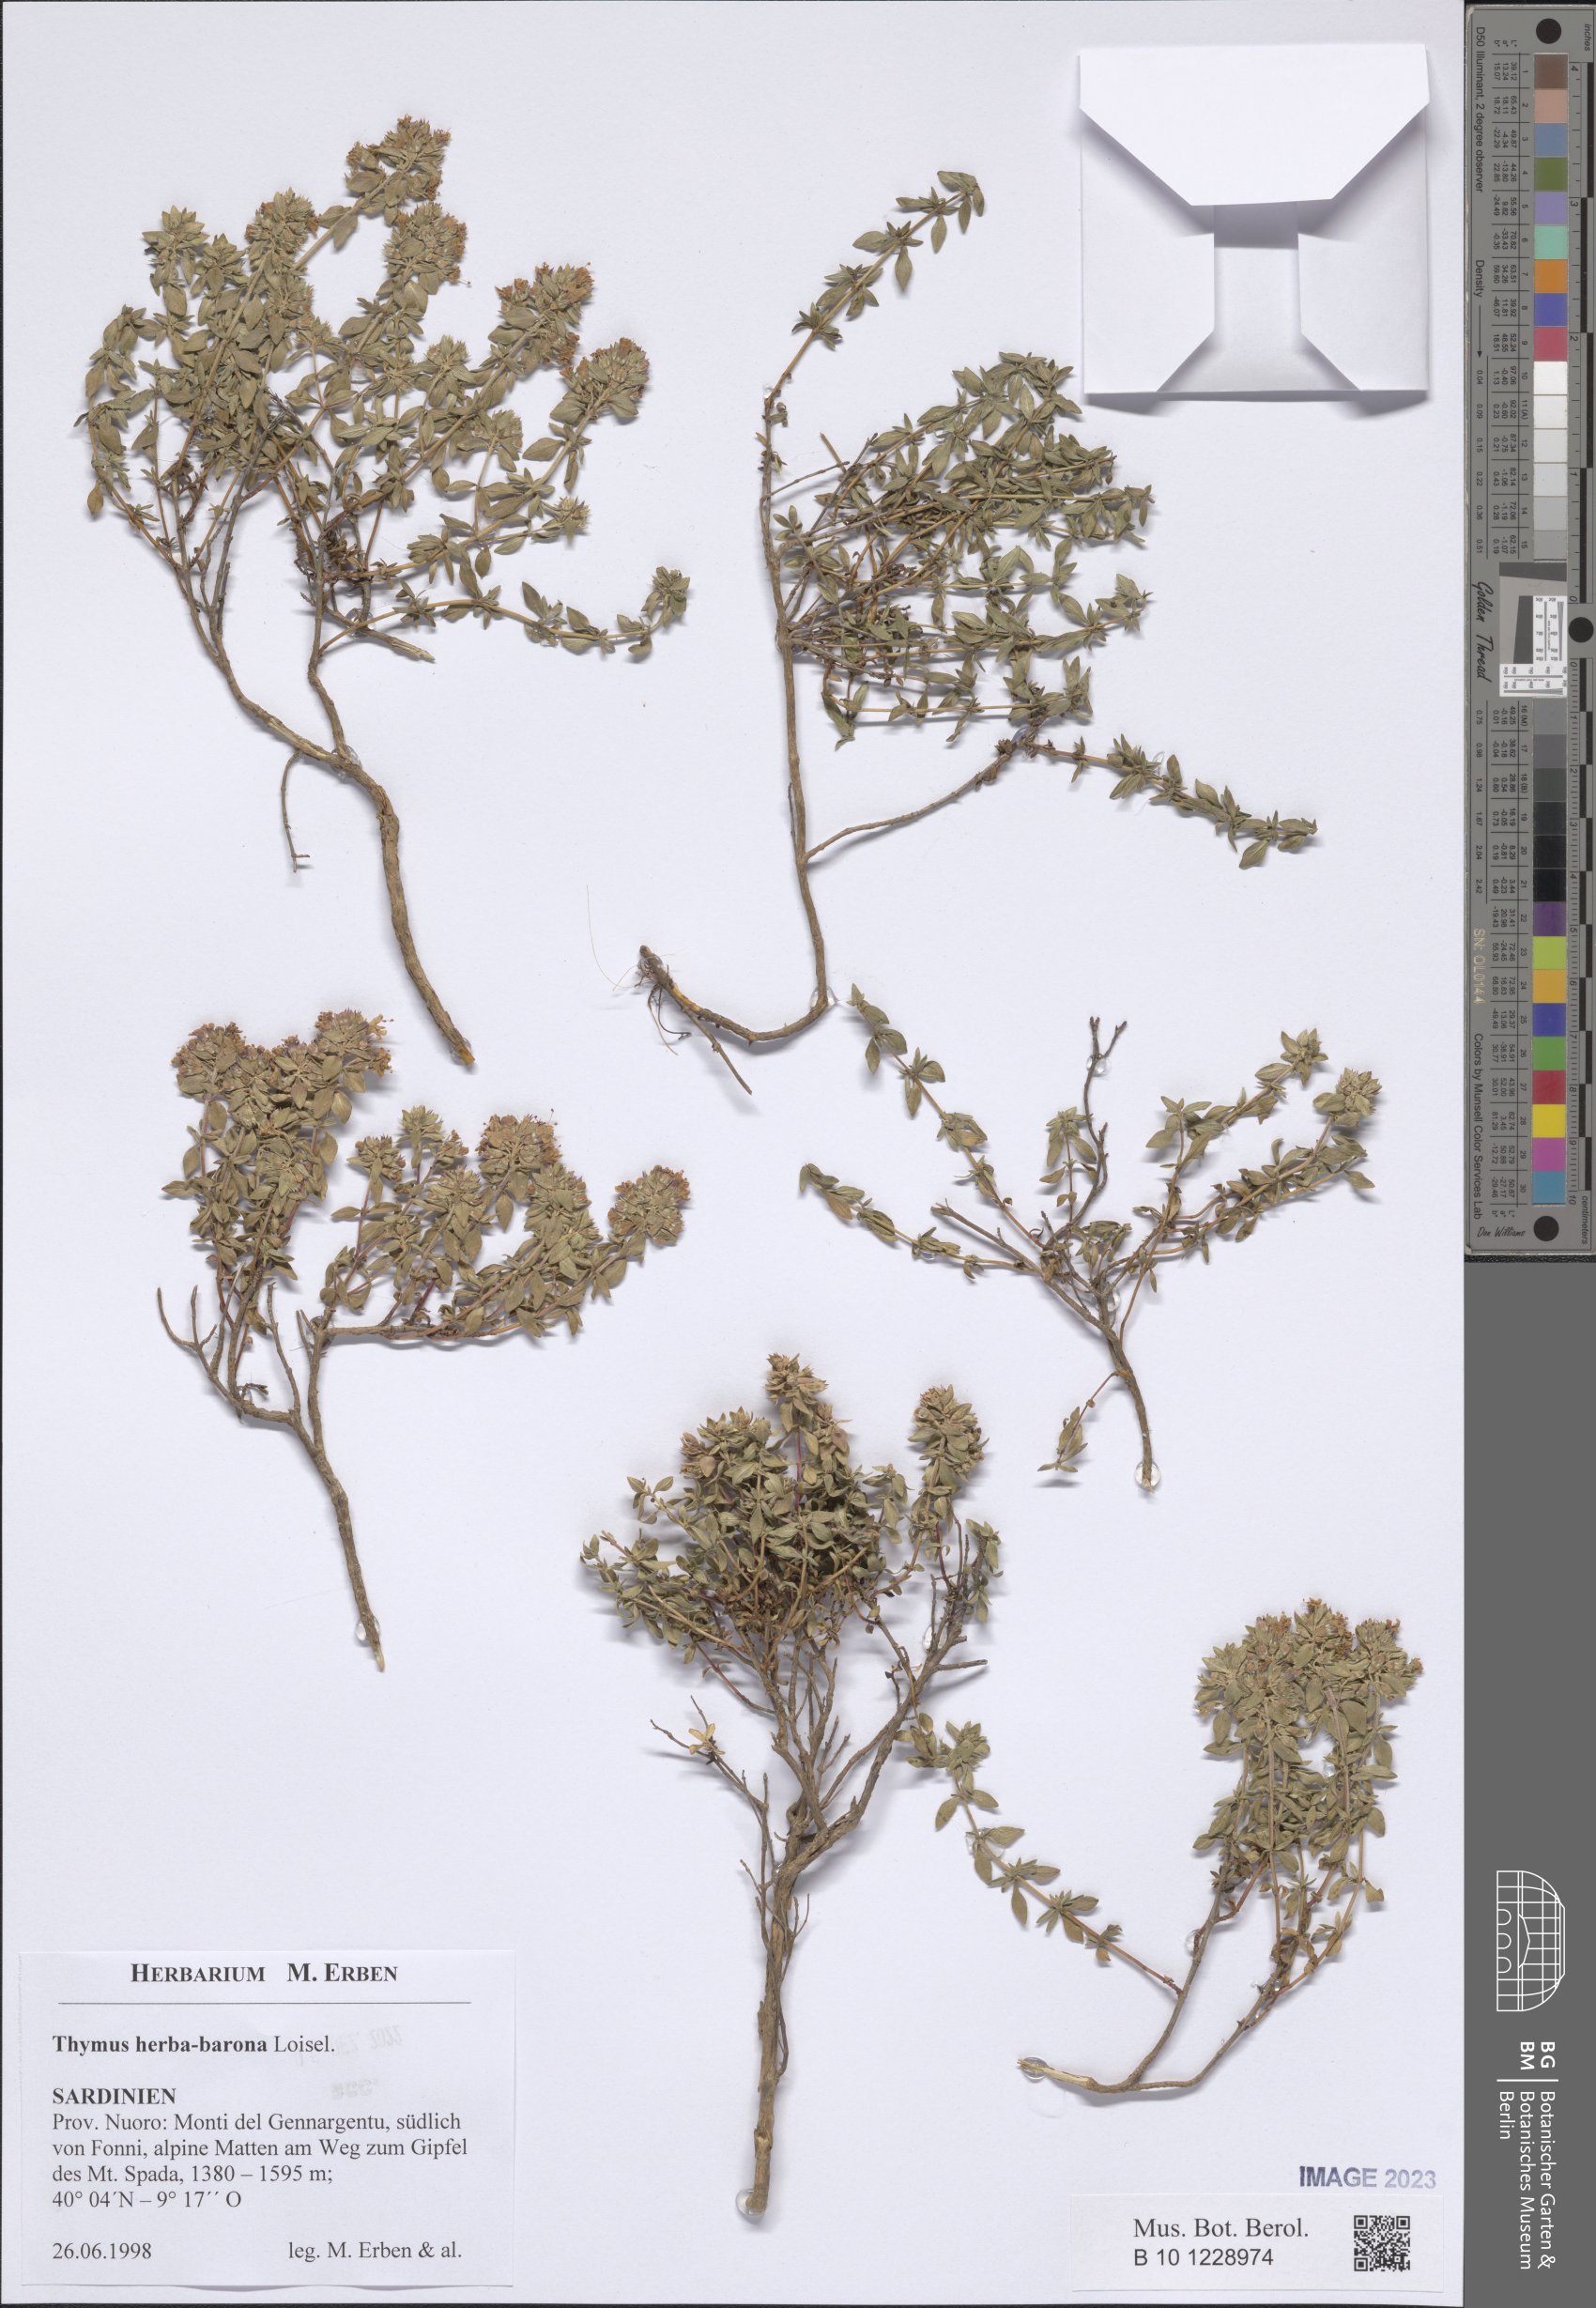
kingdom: Plantae
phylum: Tracheophyta
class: Magnoliopsida
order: Lamiales
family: Lamiaceae
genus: Thymus
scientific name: Thymus herba-barona
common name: Caraway thyme
